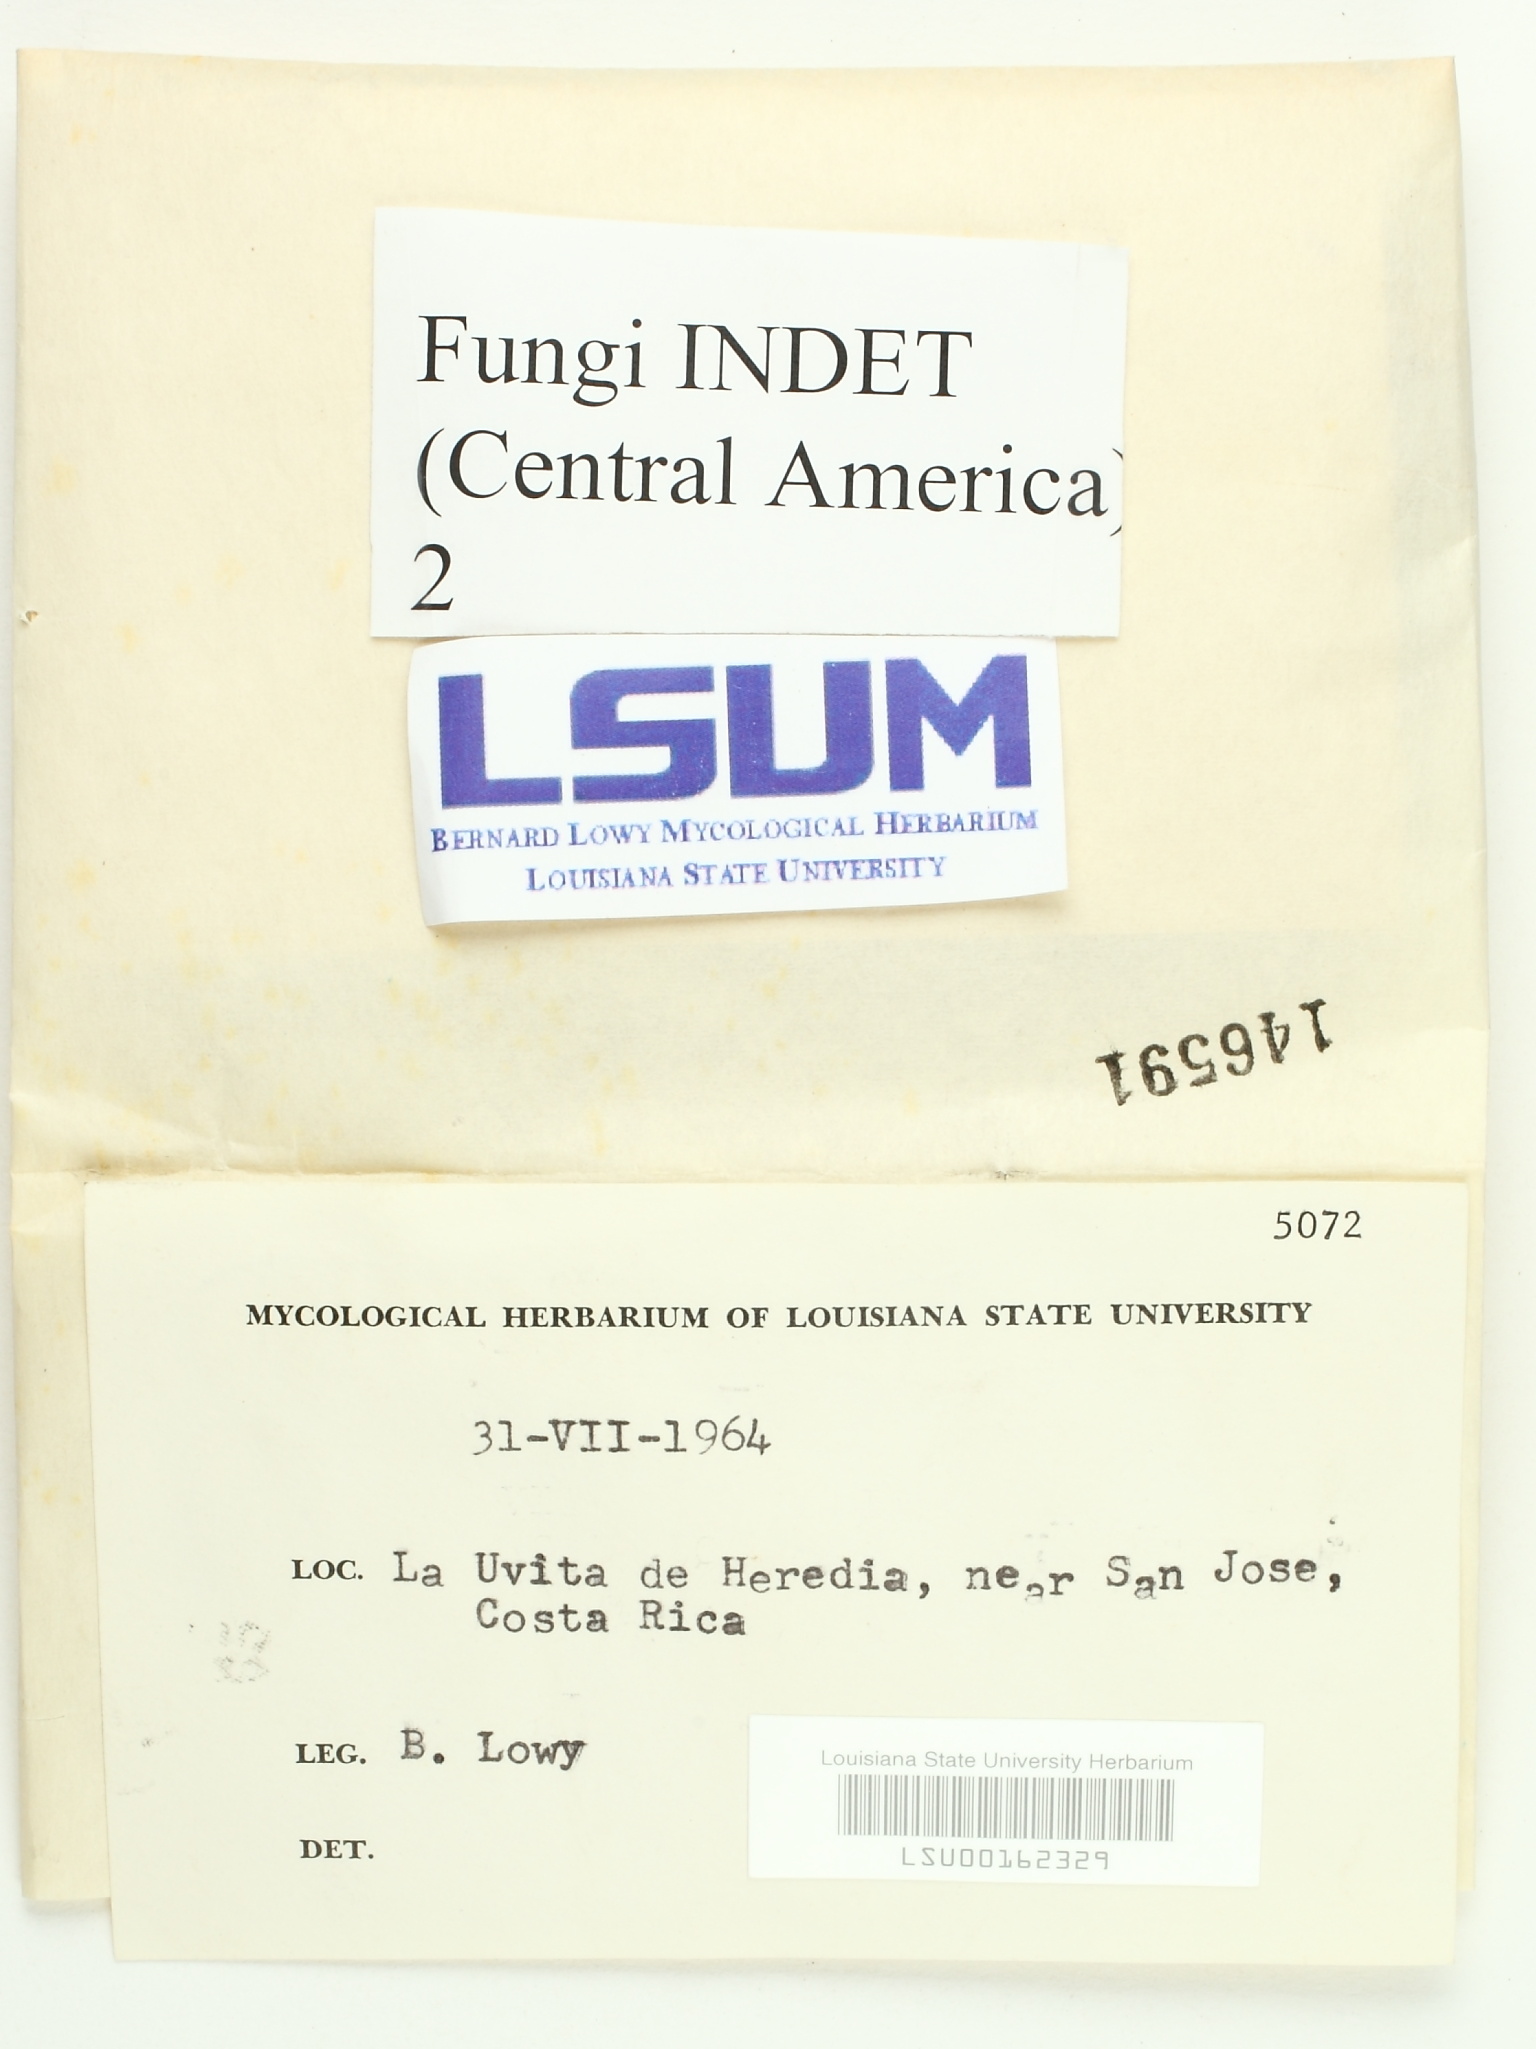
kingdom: Fungi
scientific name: Fungi
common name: Fungi
